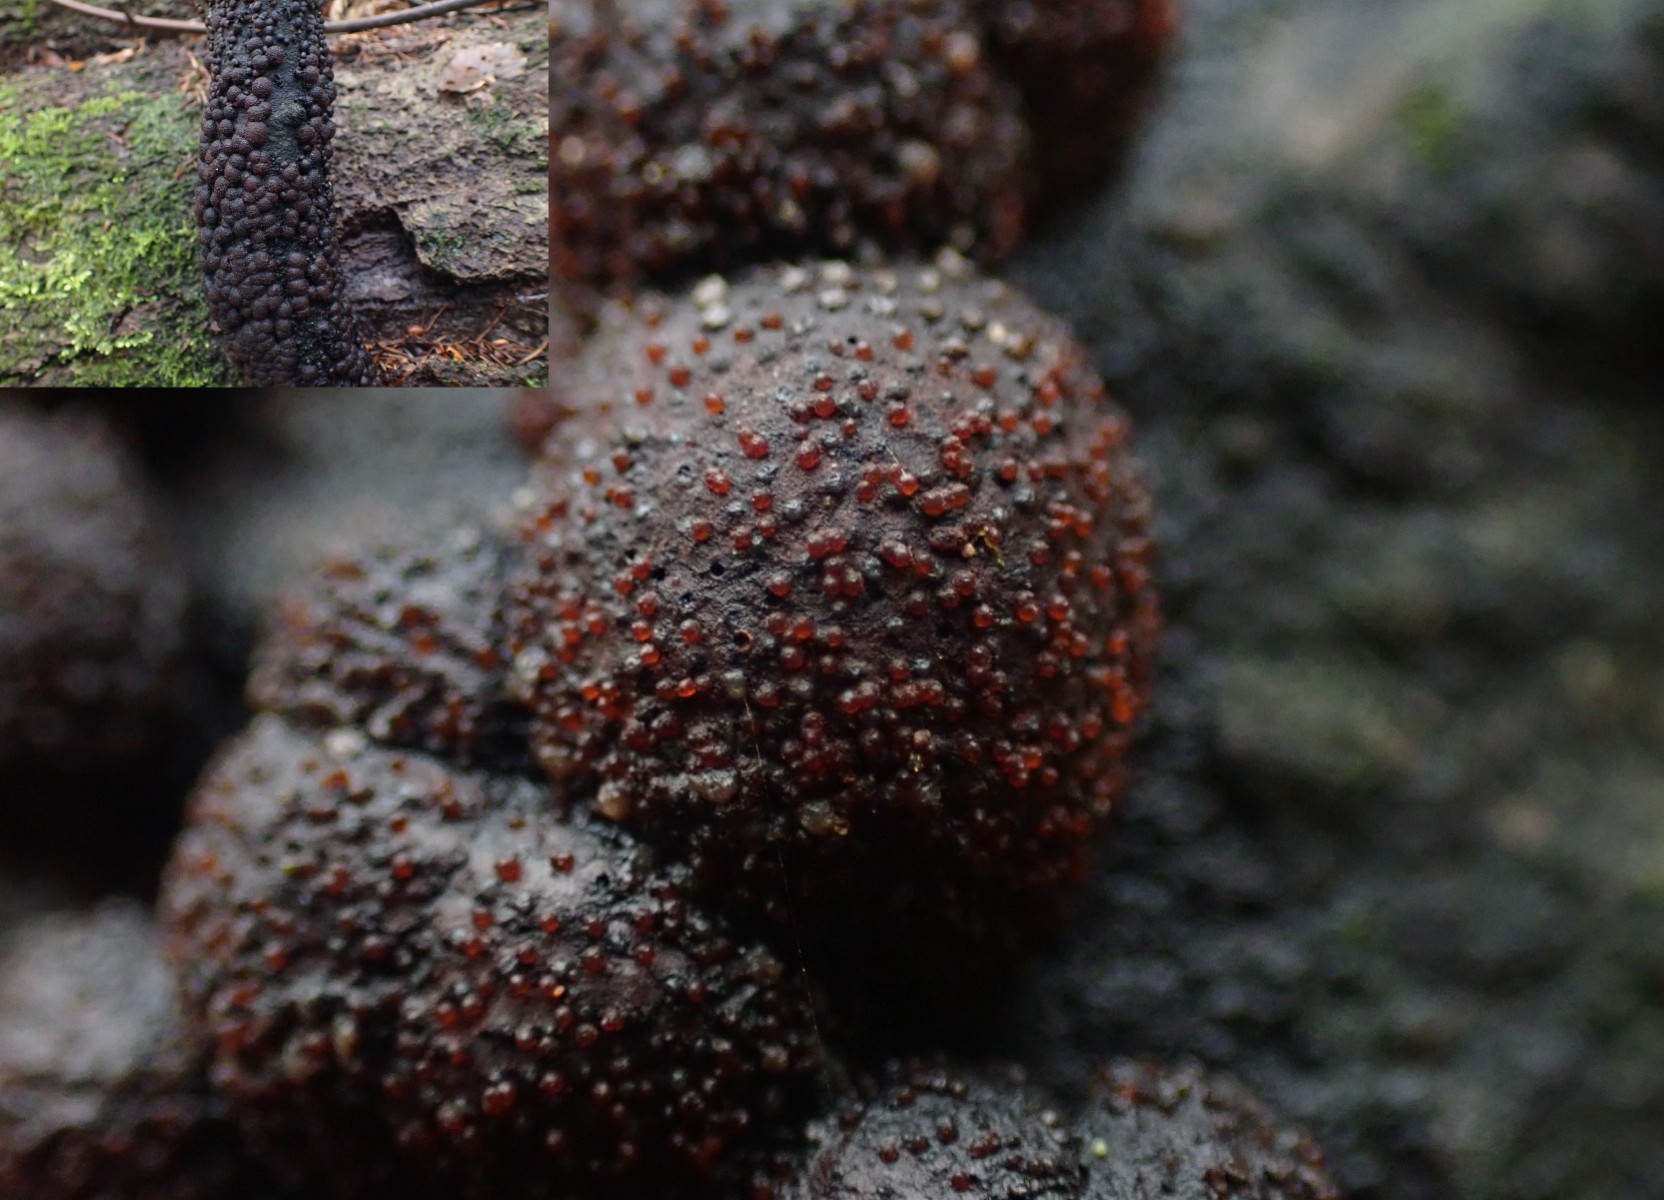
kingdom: Fungi
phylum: Ascomycota
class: Sordariomycetes
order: Hypocreales
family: Nectriaceae
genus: Cosmospora
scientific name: Cosmospora arxii
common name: kuljordbær-cinnobersvamp
